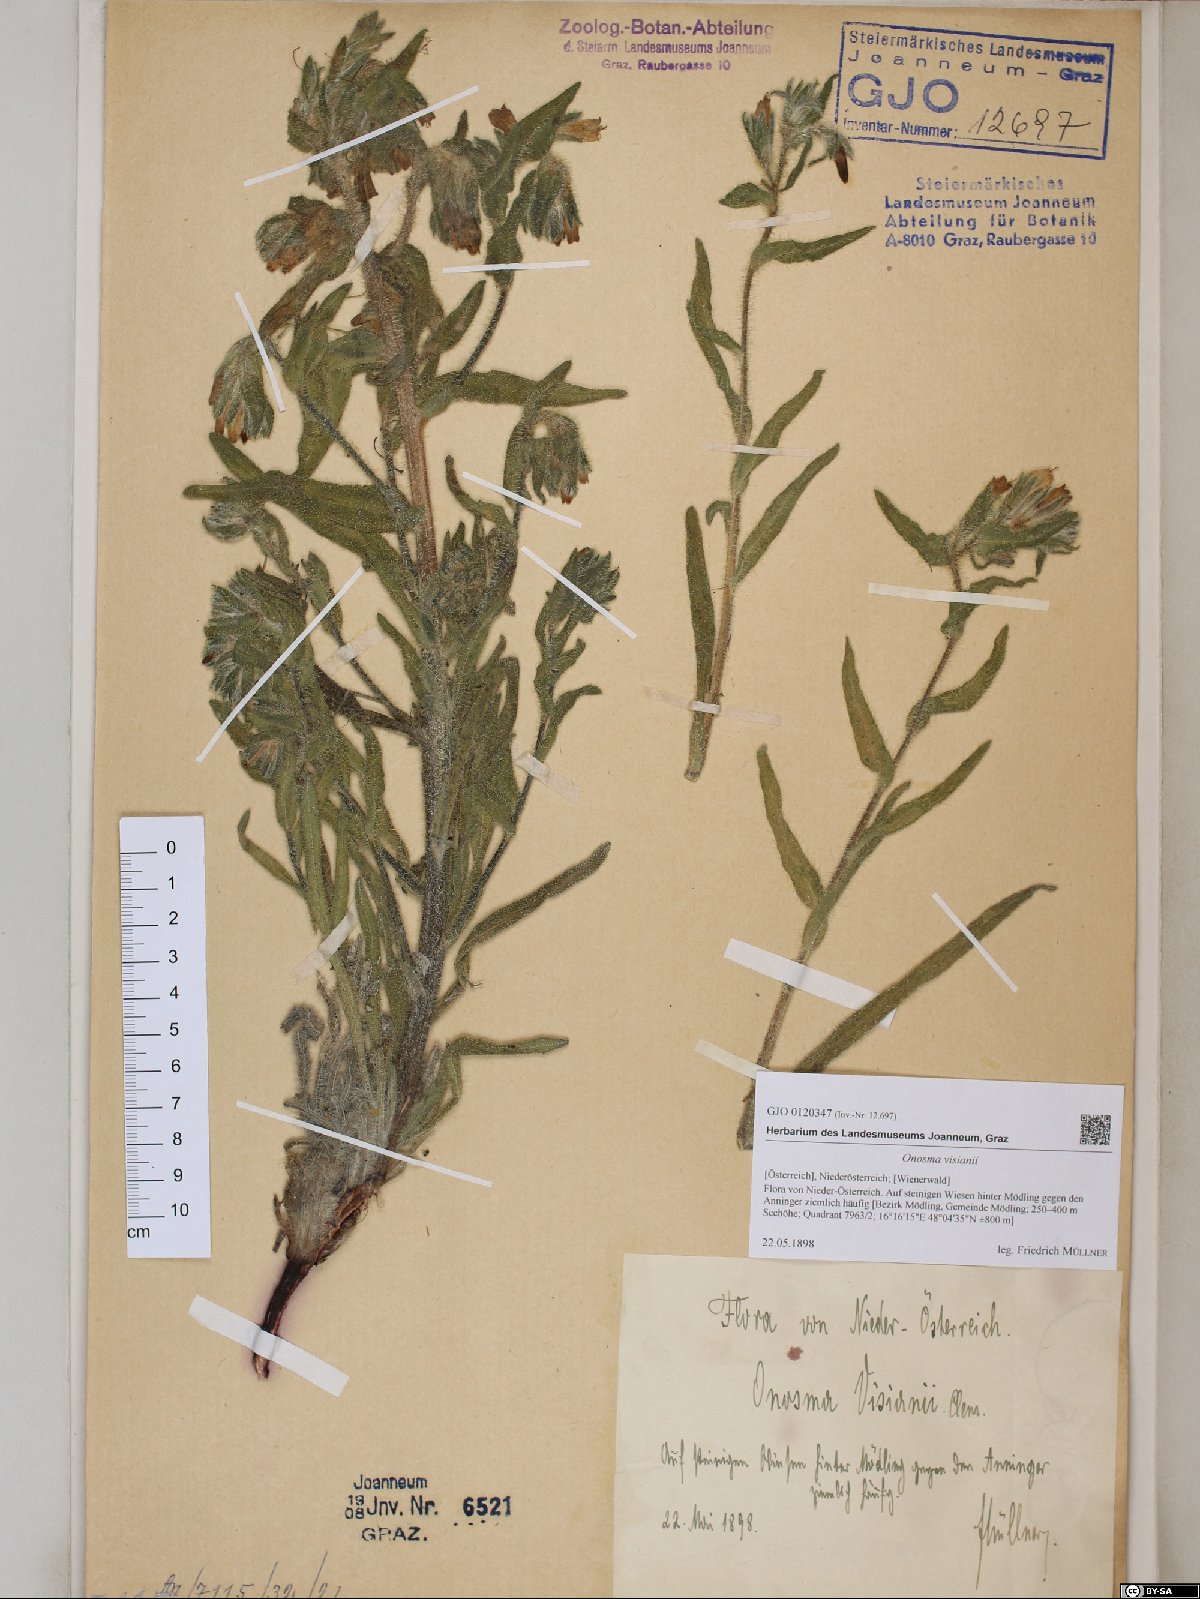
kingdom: Plantae
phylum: Tracheophyta
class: Magnoliopsida
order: Boraginales
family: Boraginaceae
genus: Onosma
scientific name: Onosma visianii
